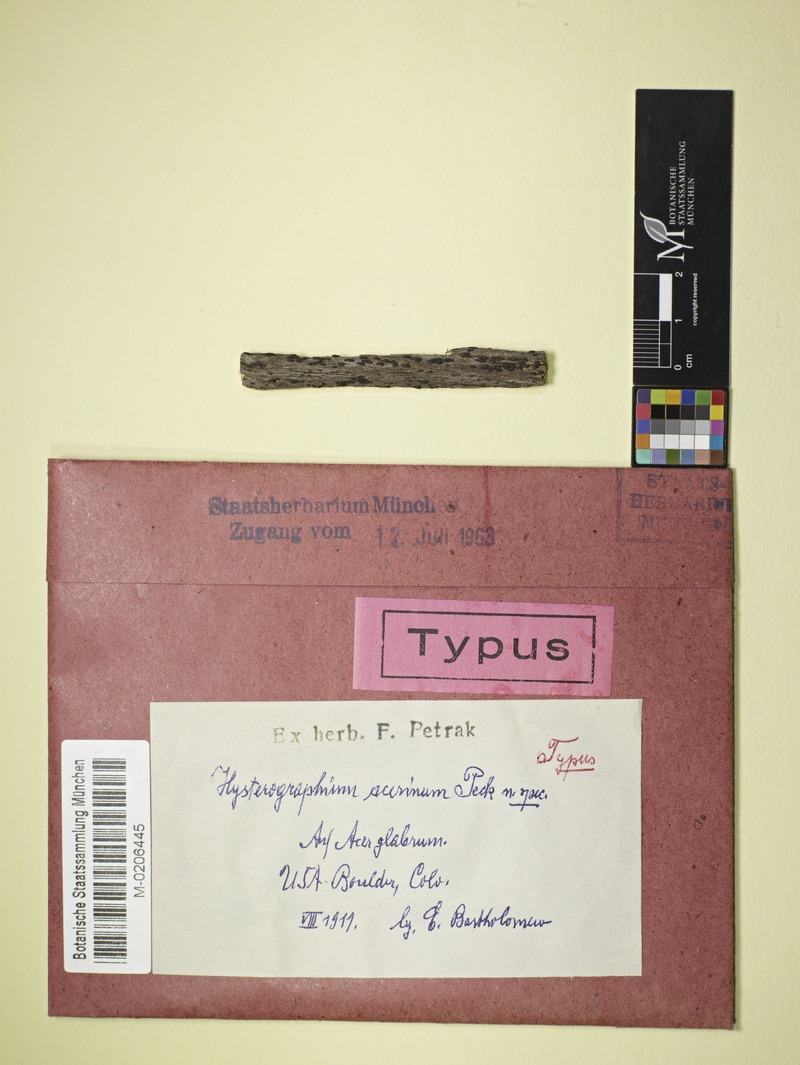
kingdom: Fungi
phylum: Ascomycota
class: Dothideomycetes
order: Hysteriales
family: Hysteriaceae
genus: Hysterium
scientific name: Hysterium pulicare
